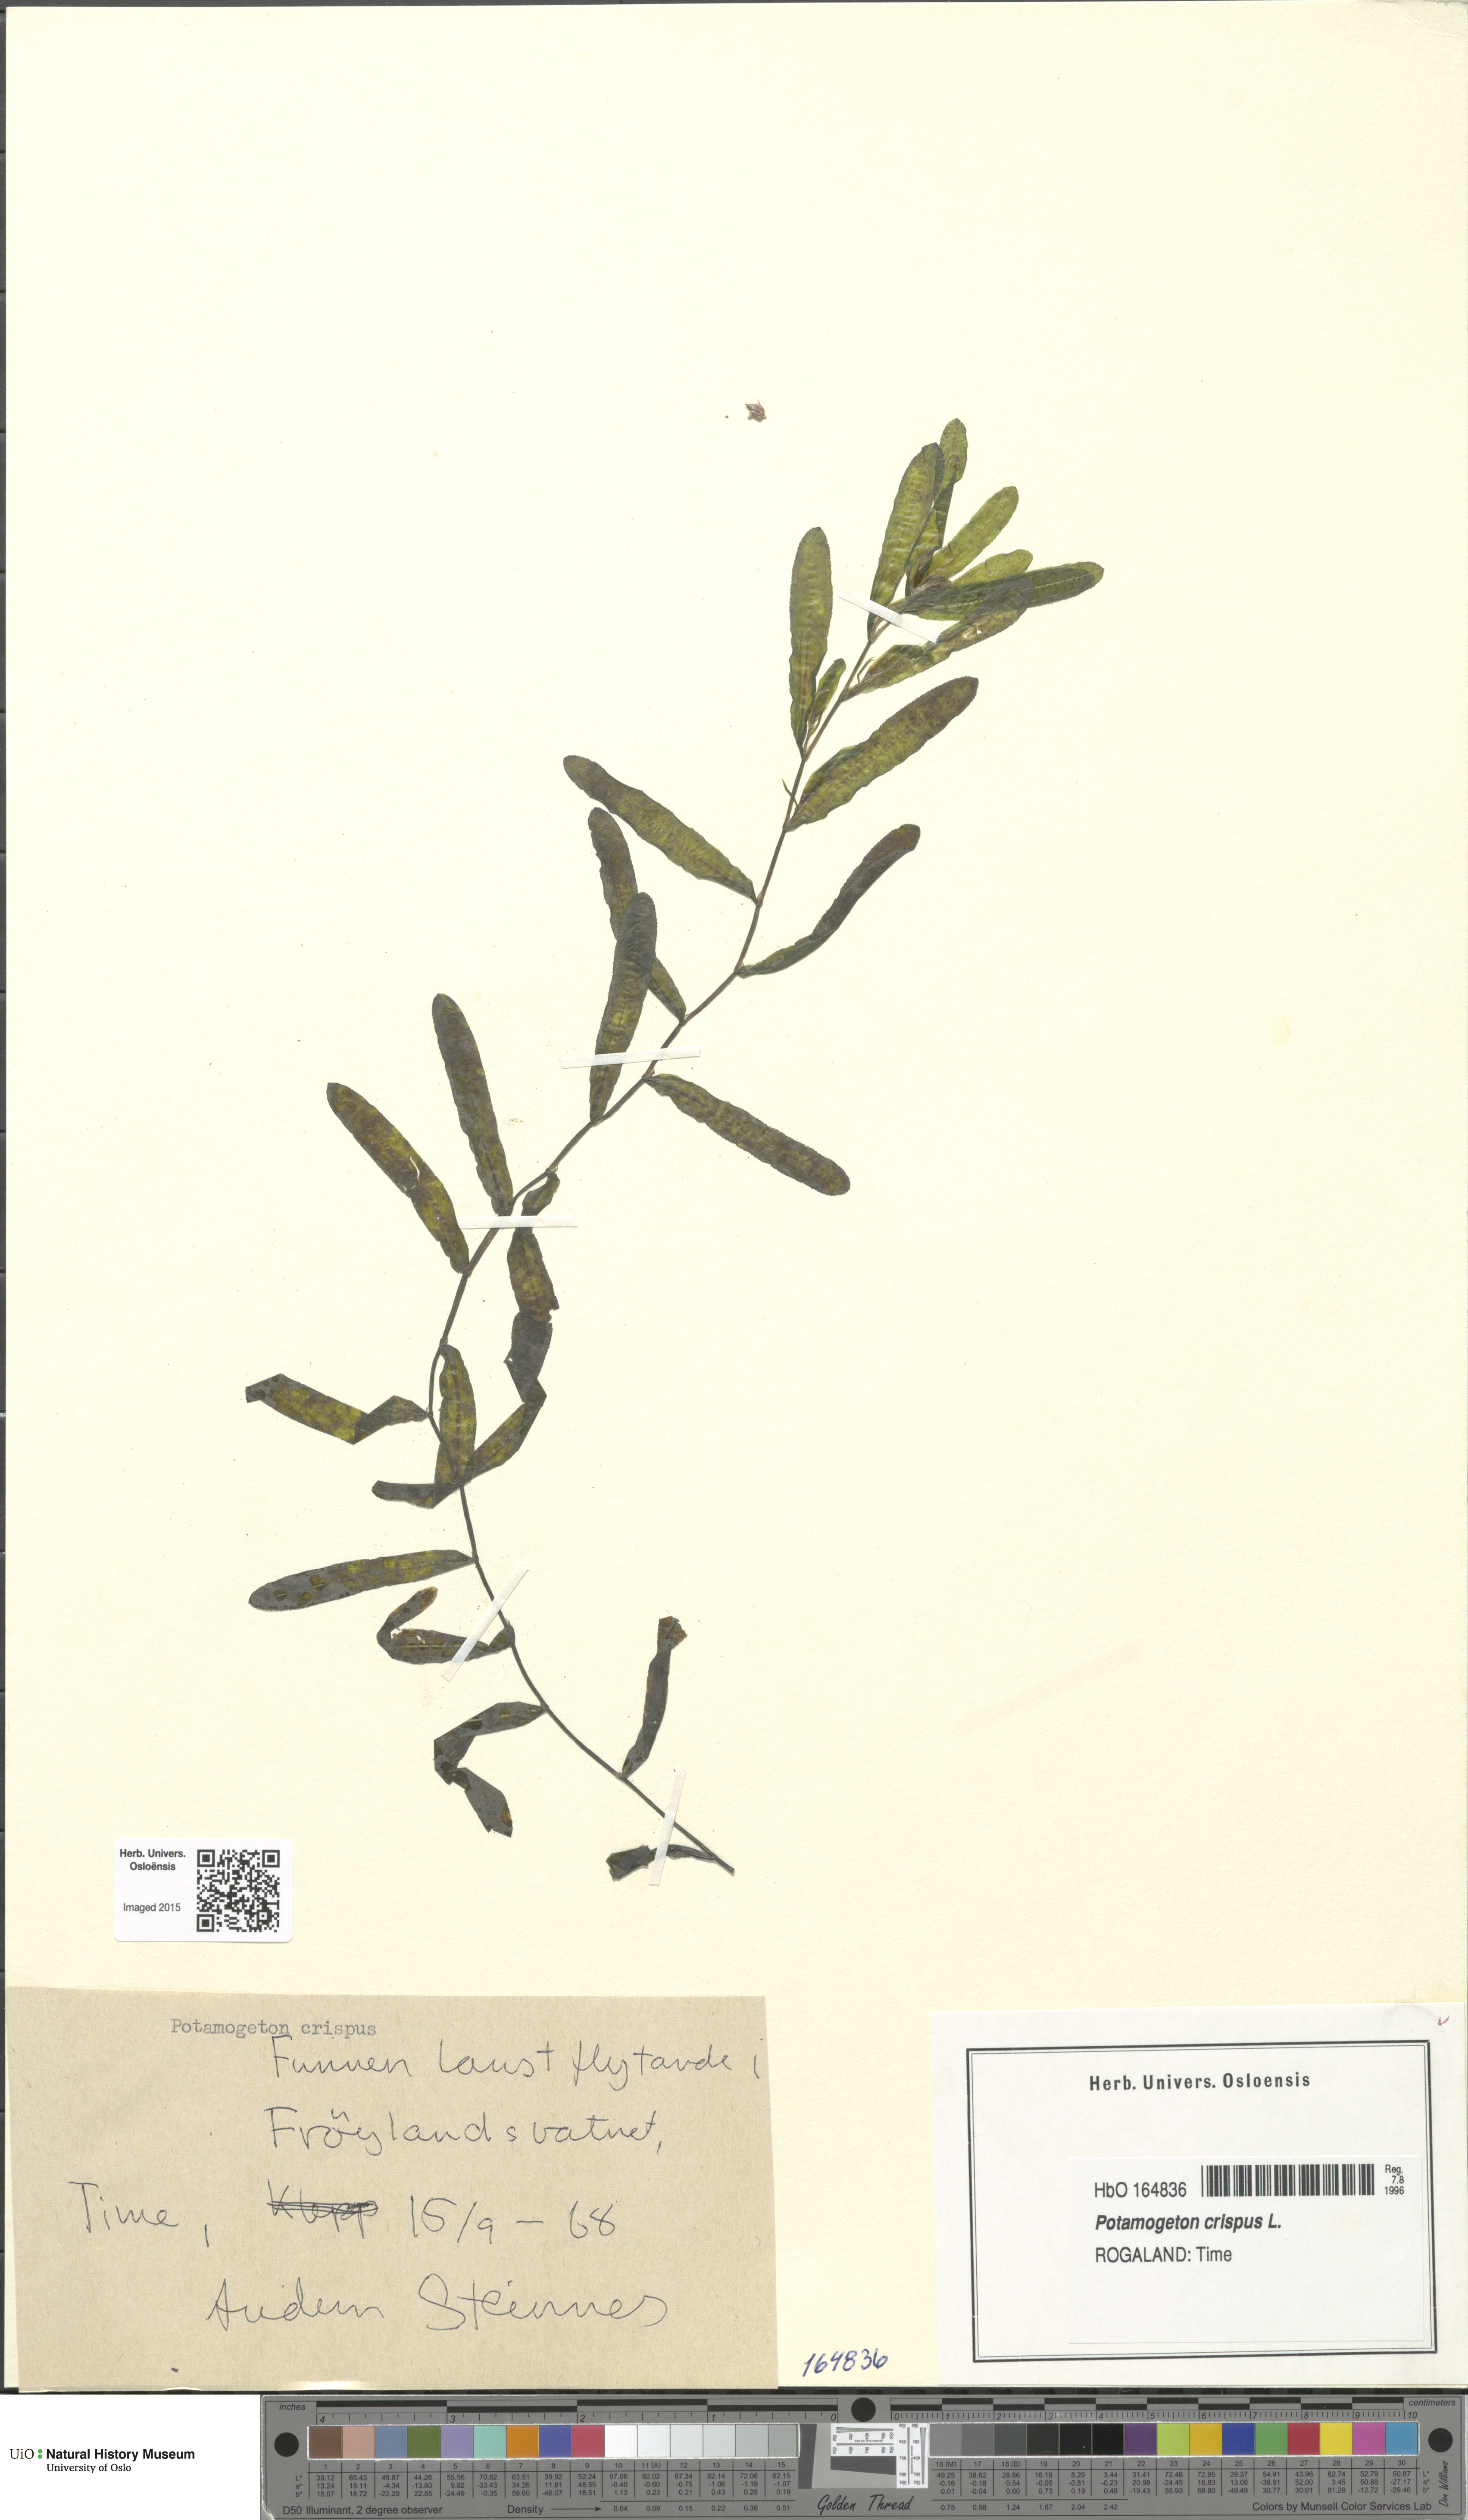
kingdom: Plantae
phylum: Tracheophyta
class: Liliopsida
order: Alismatales
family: Potamogetonaceae
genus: Potamogeton
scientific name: Potamogeton crispus
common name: Curled pondweed
